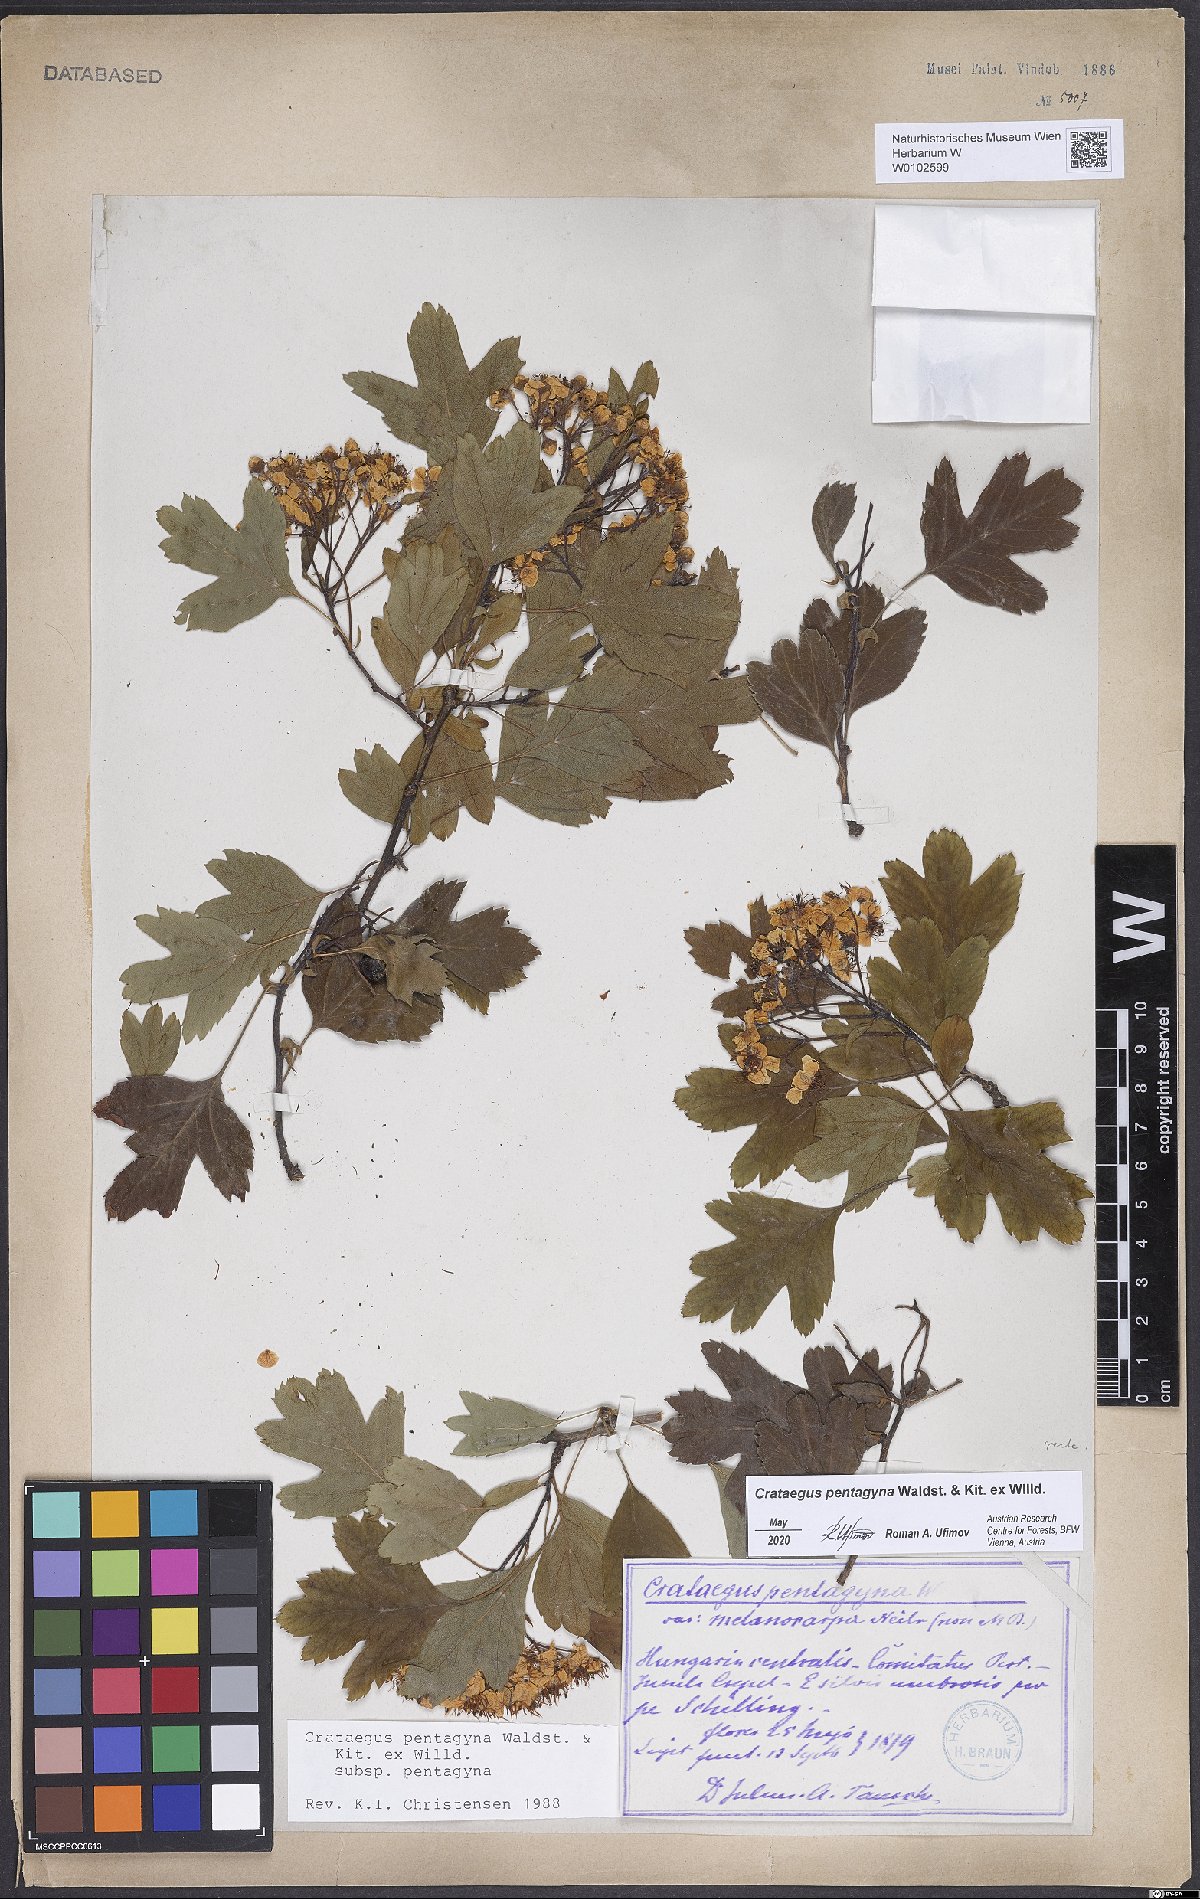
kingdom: Plantae
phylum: Tracheophyta
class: Magnoliopsida
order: Rosales
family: Rosaceae
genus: Crataegus
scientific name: Crataegus pentagyna
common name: Small-flowered black hawthorn
